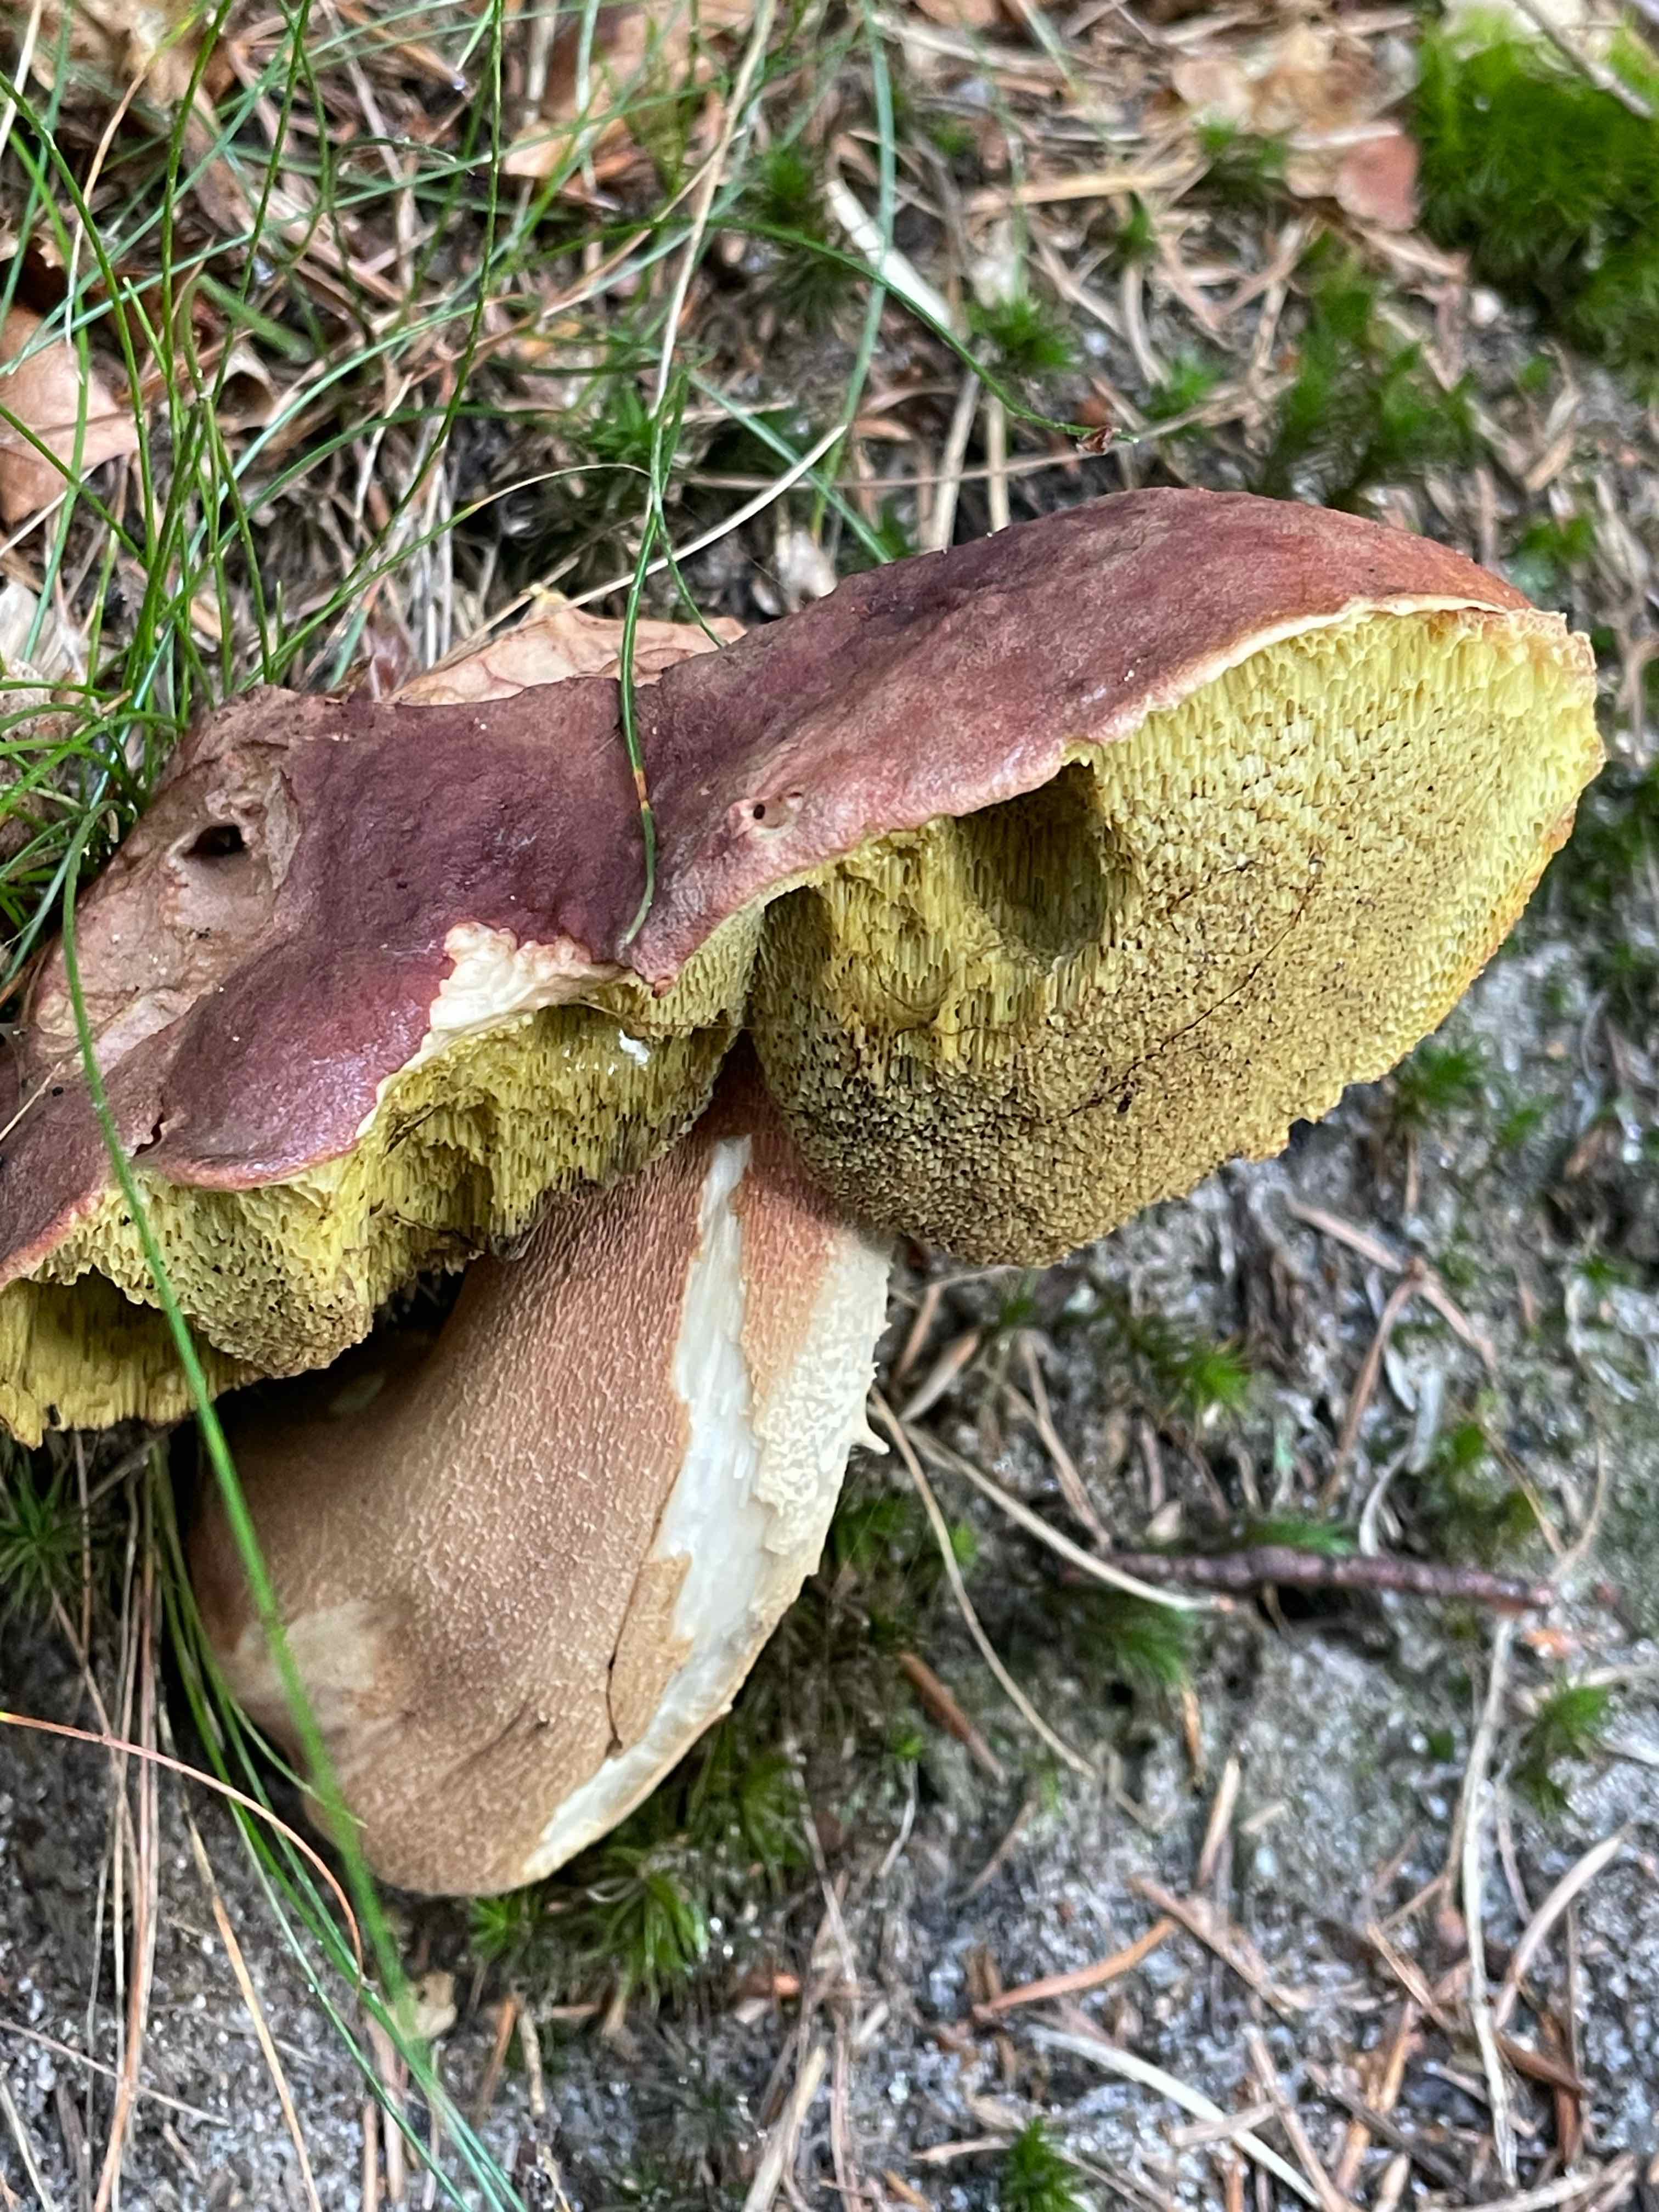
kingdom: Fungi
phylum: Basidiomycota
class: Agaricomycetes
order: Boletales
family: Boletaceae
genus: Boletus
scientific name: Boletus pinophilus
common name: rødbrun rørhat
